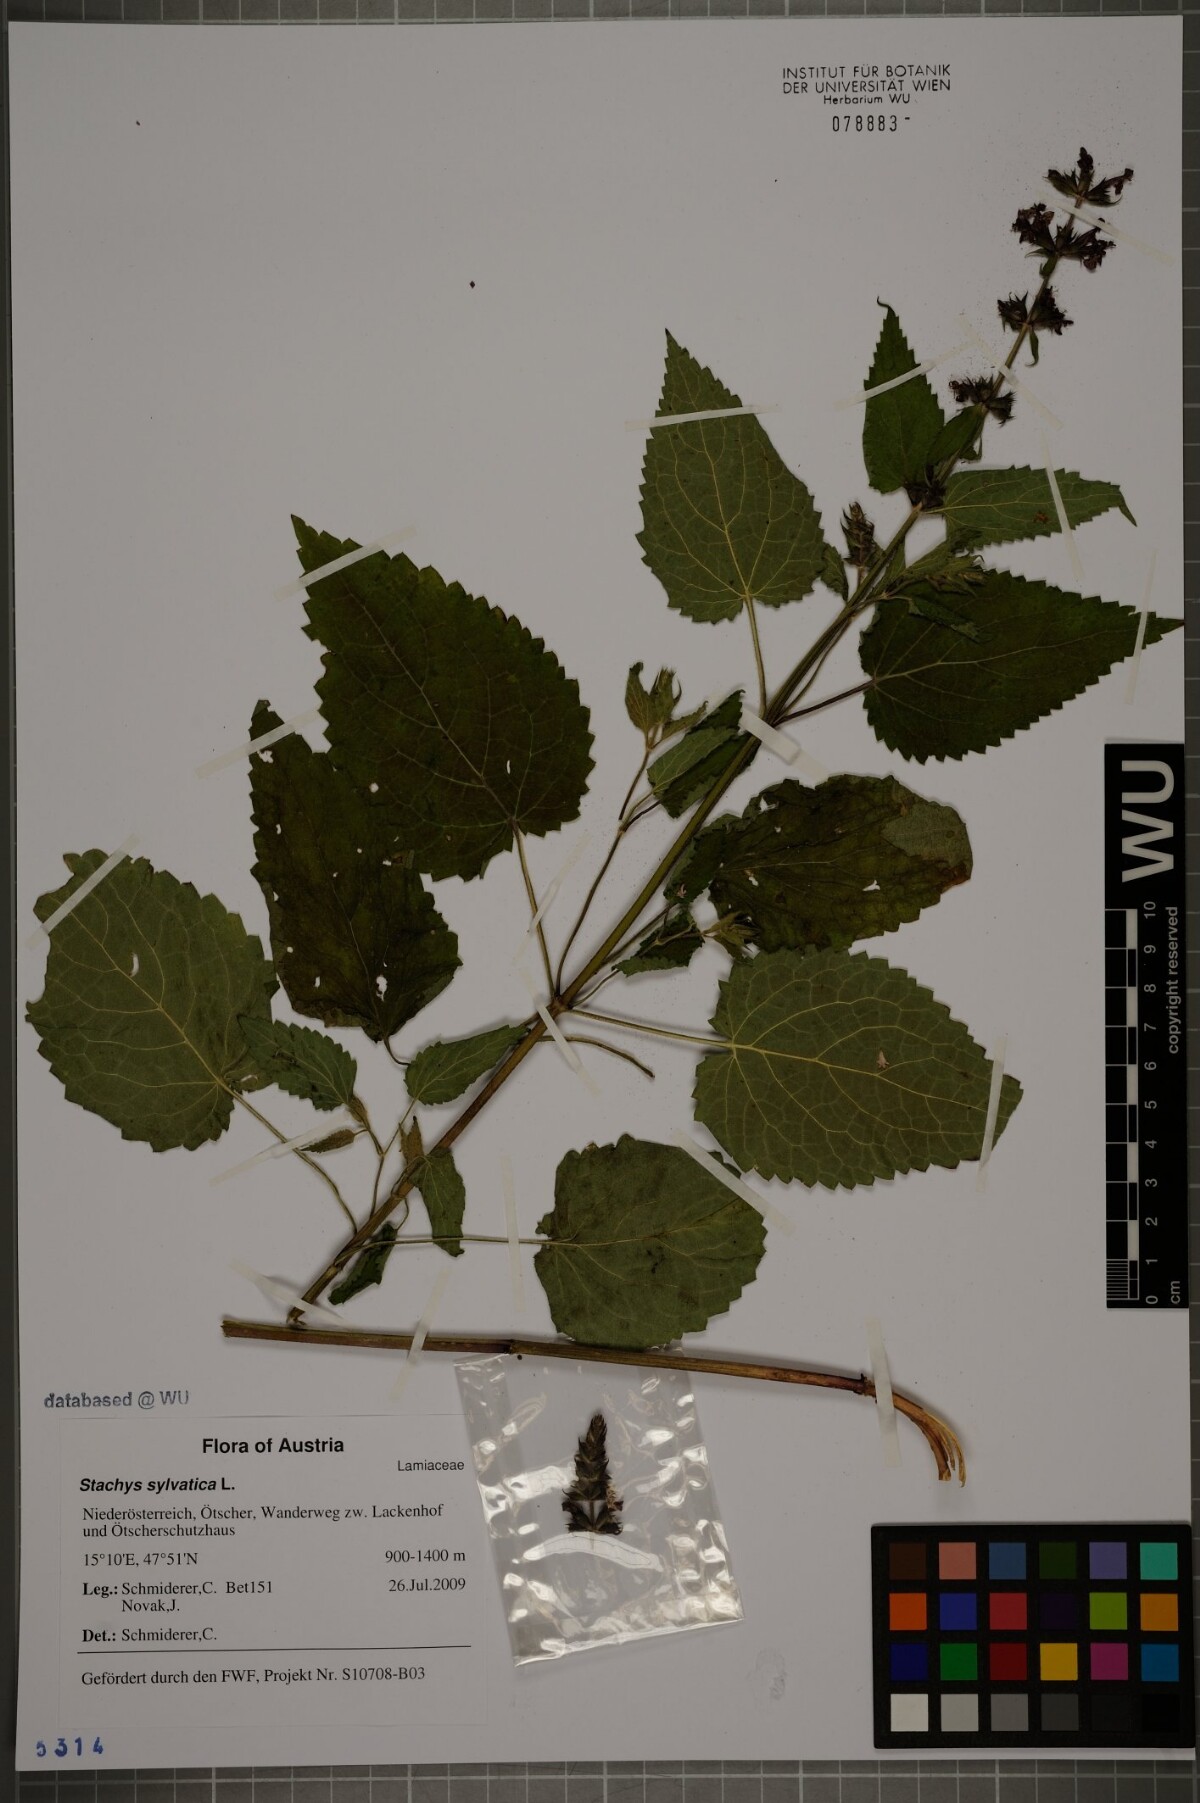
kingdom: Plantae
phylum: Tracheophyta
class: Magnoliopsida
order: Lamiales
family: Lamiaceae
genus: Stachys
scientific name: Stachys sylvatica
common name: Hedge woundwort
